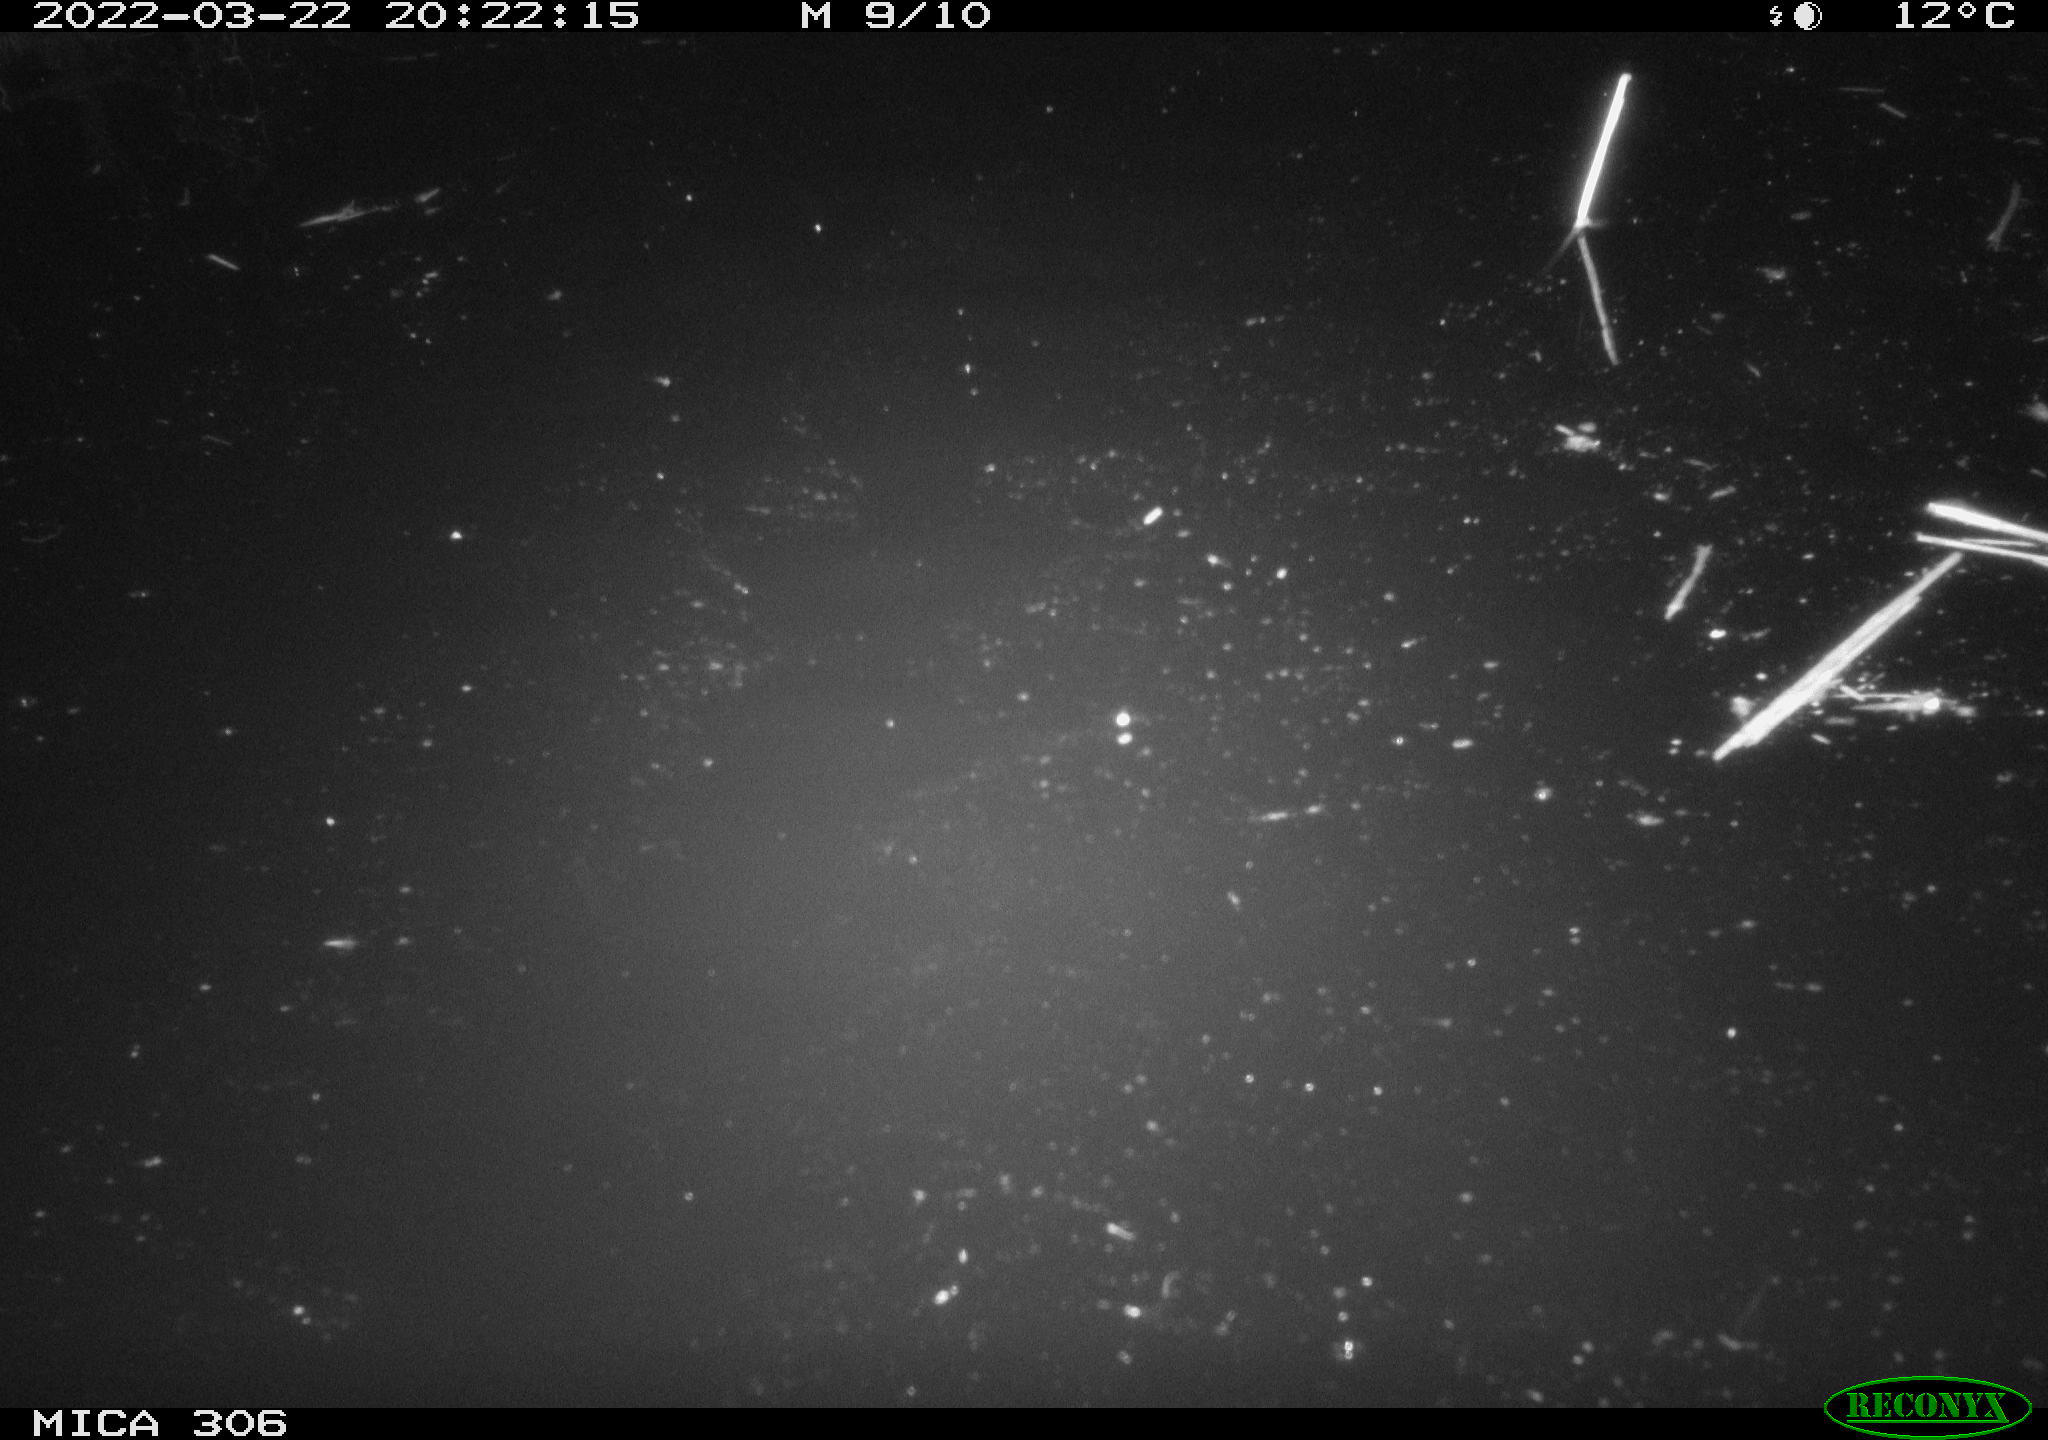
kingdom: Animalia
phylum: Chordata
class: Mammalia
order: Rodentia
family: Cricetidae
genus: Ondatra
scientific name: Ondatra zibethicus
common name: Muskrat
